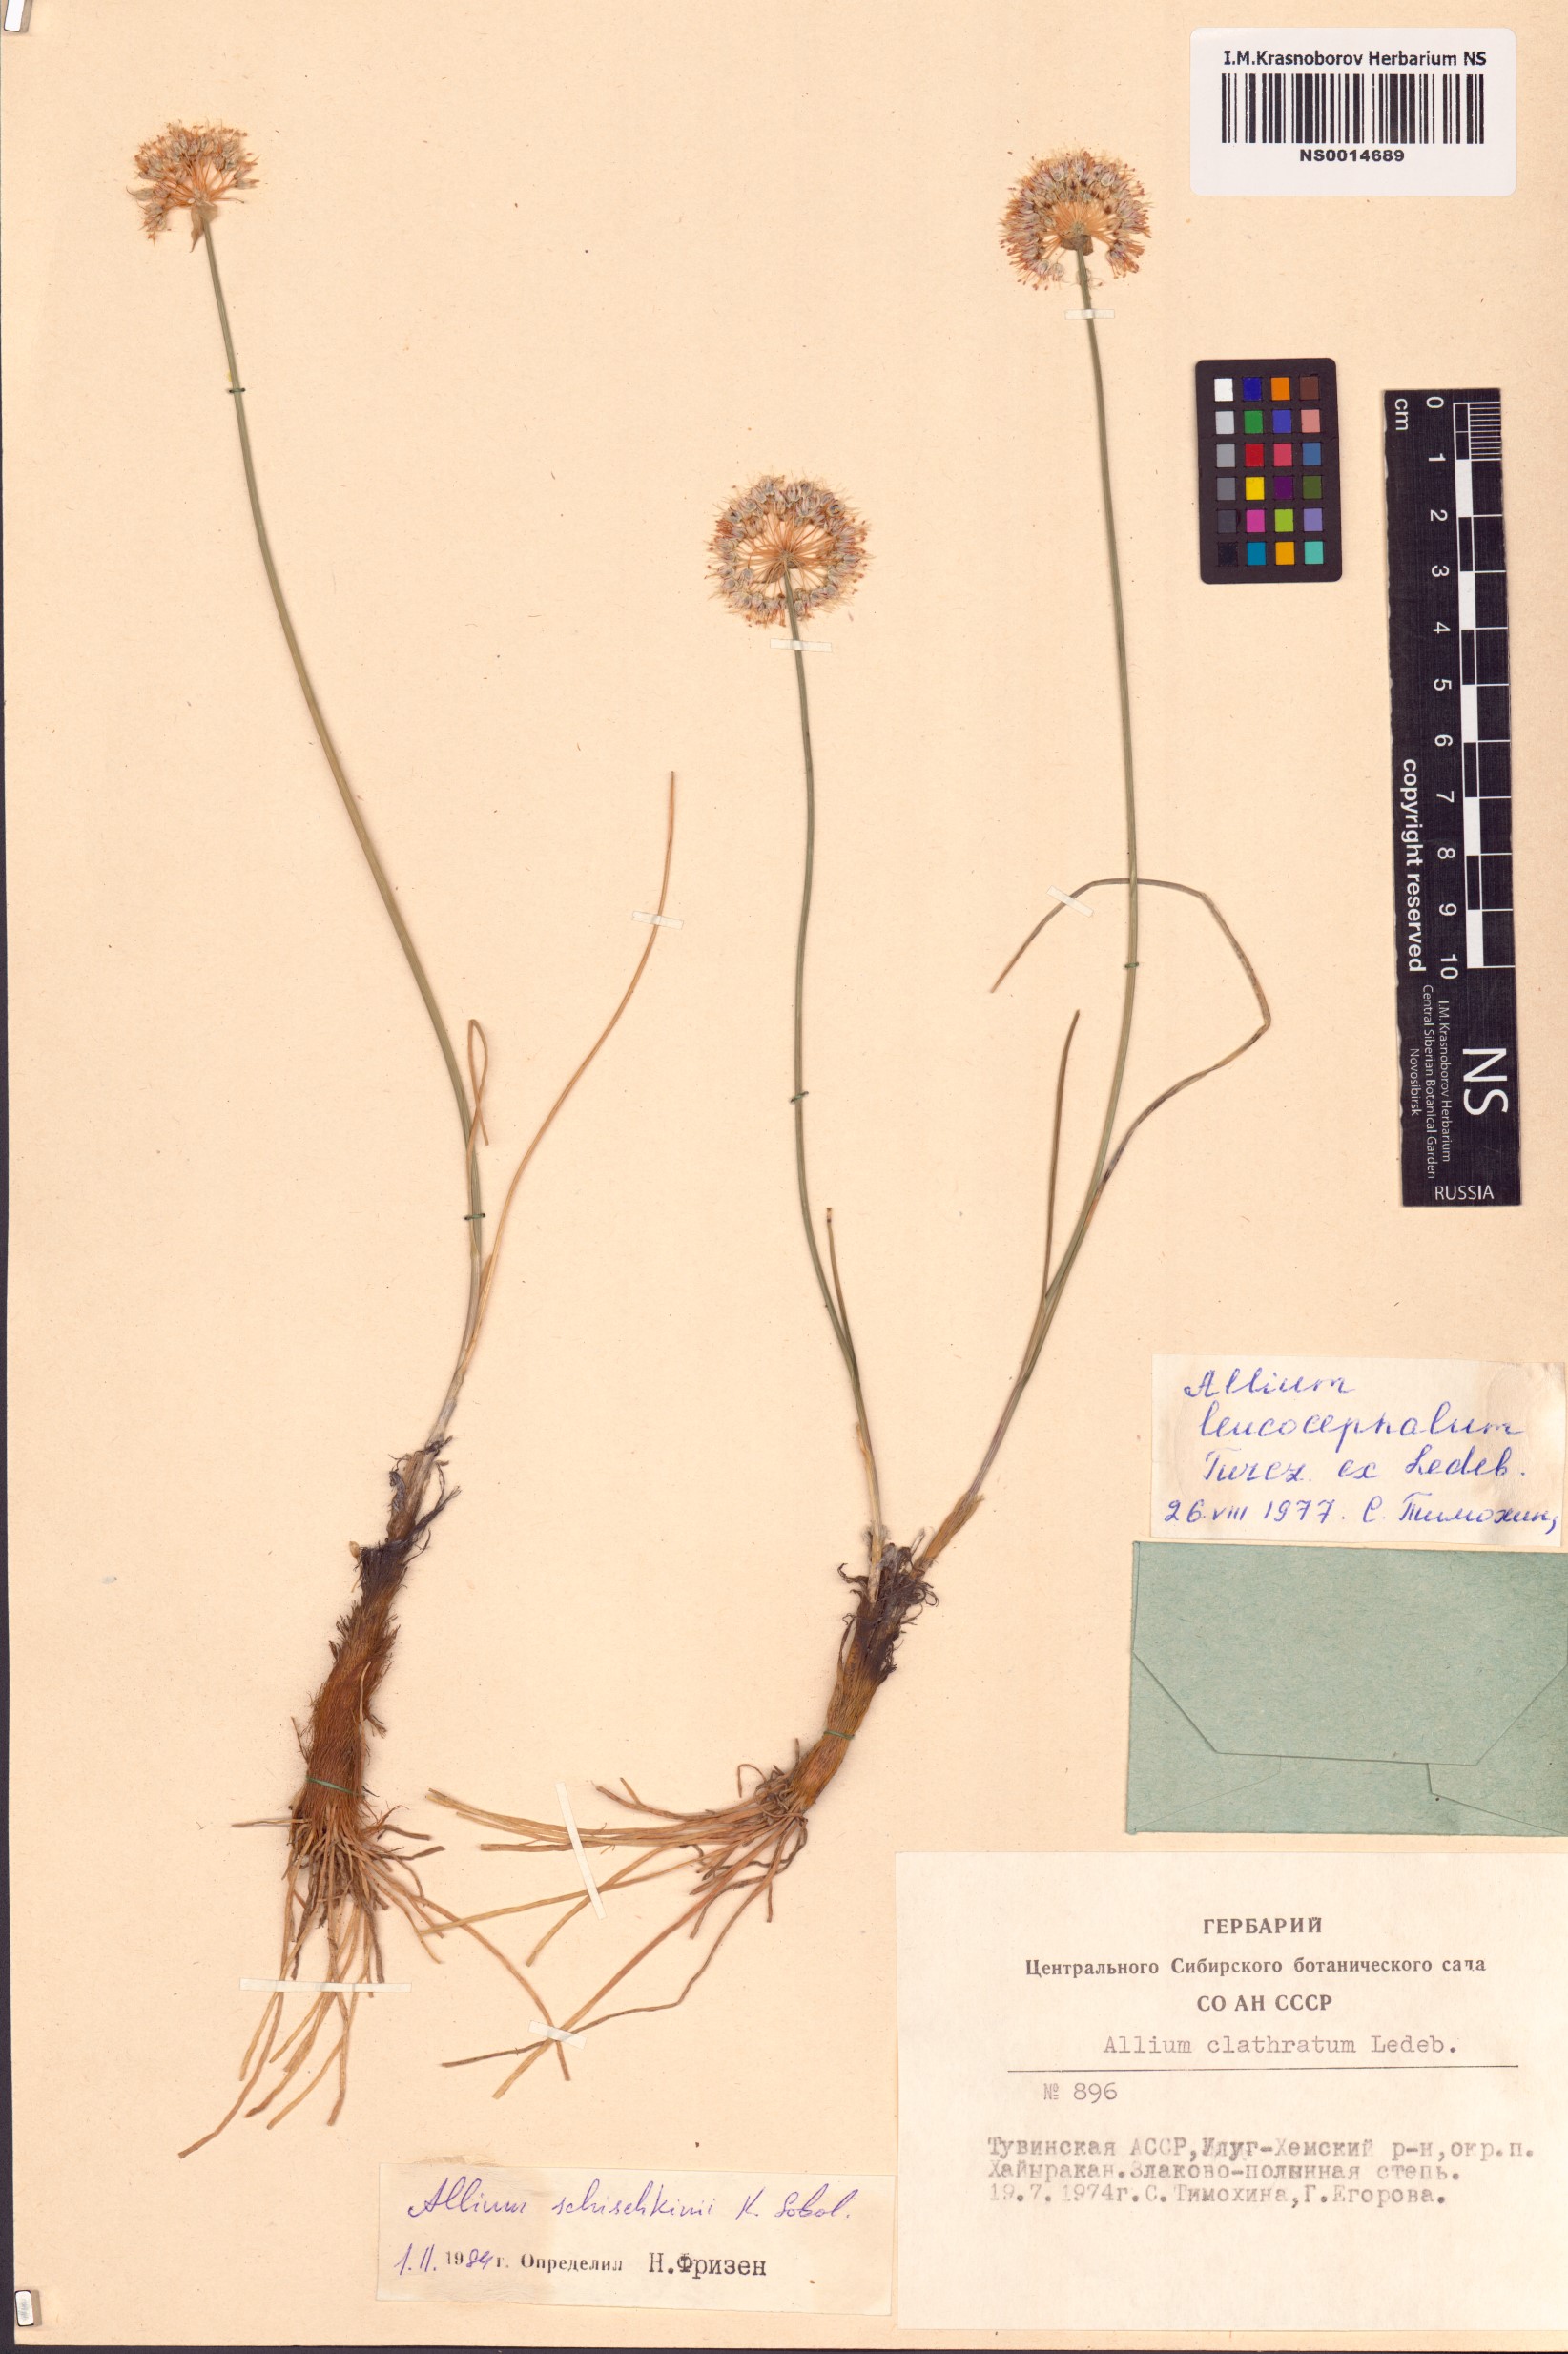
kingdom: Plantae
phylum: Tracheophyta
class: Liliopsida
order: Asparagales
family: Amaryllidaceae
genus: Allium
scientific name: Allium schischkinii
